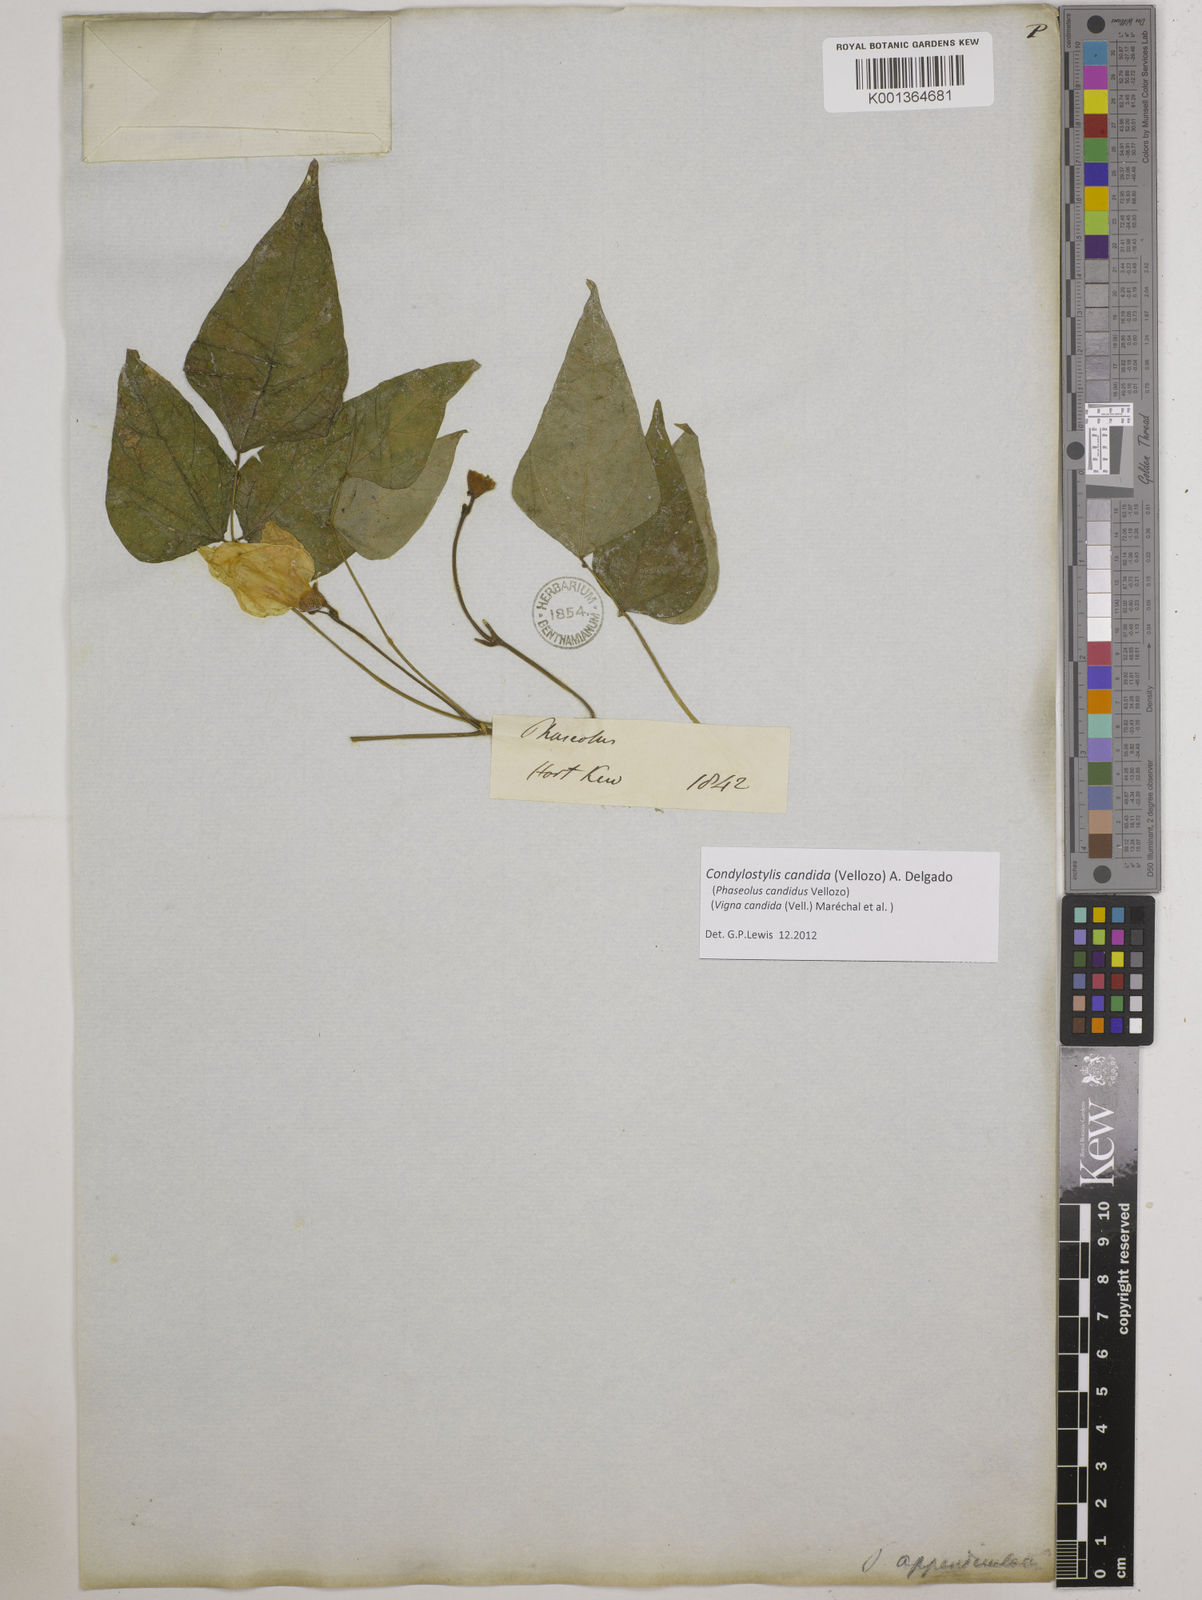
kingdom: Plantae
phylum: Tracheophyta
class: Magnoliopsida
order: Fabales
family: Fabaceae
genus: Condylostylis
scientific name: Condylostylis candida
